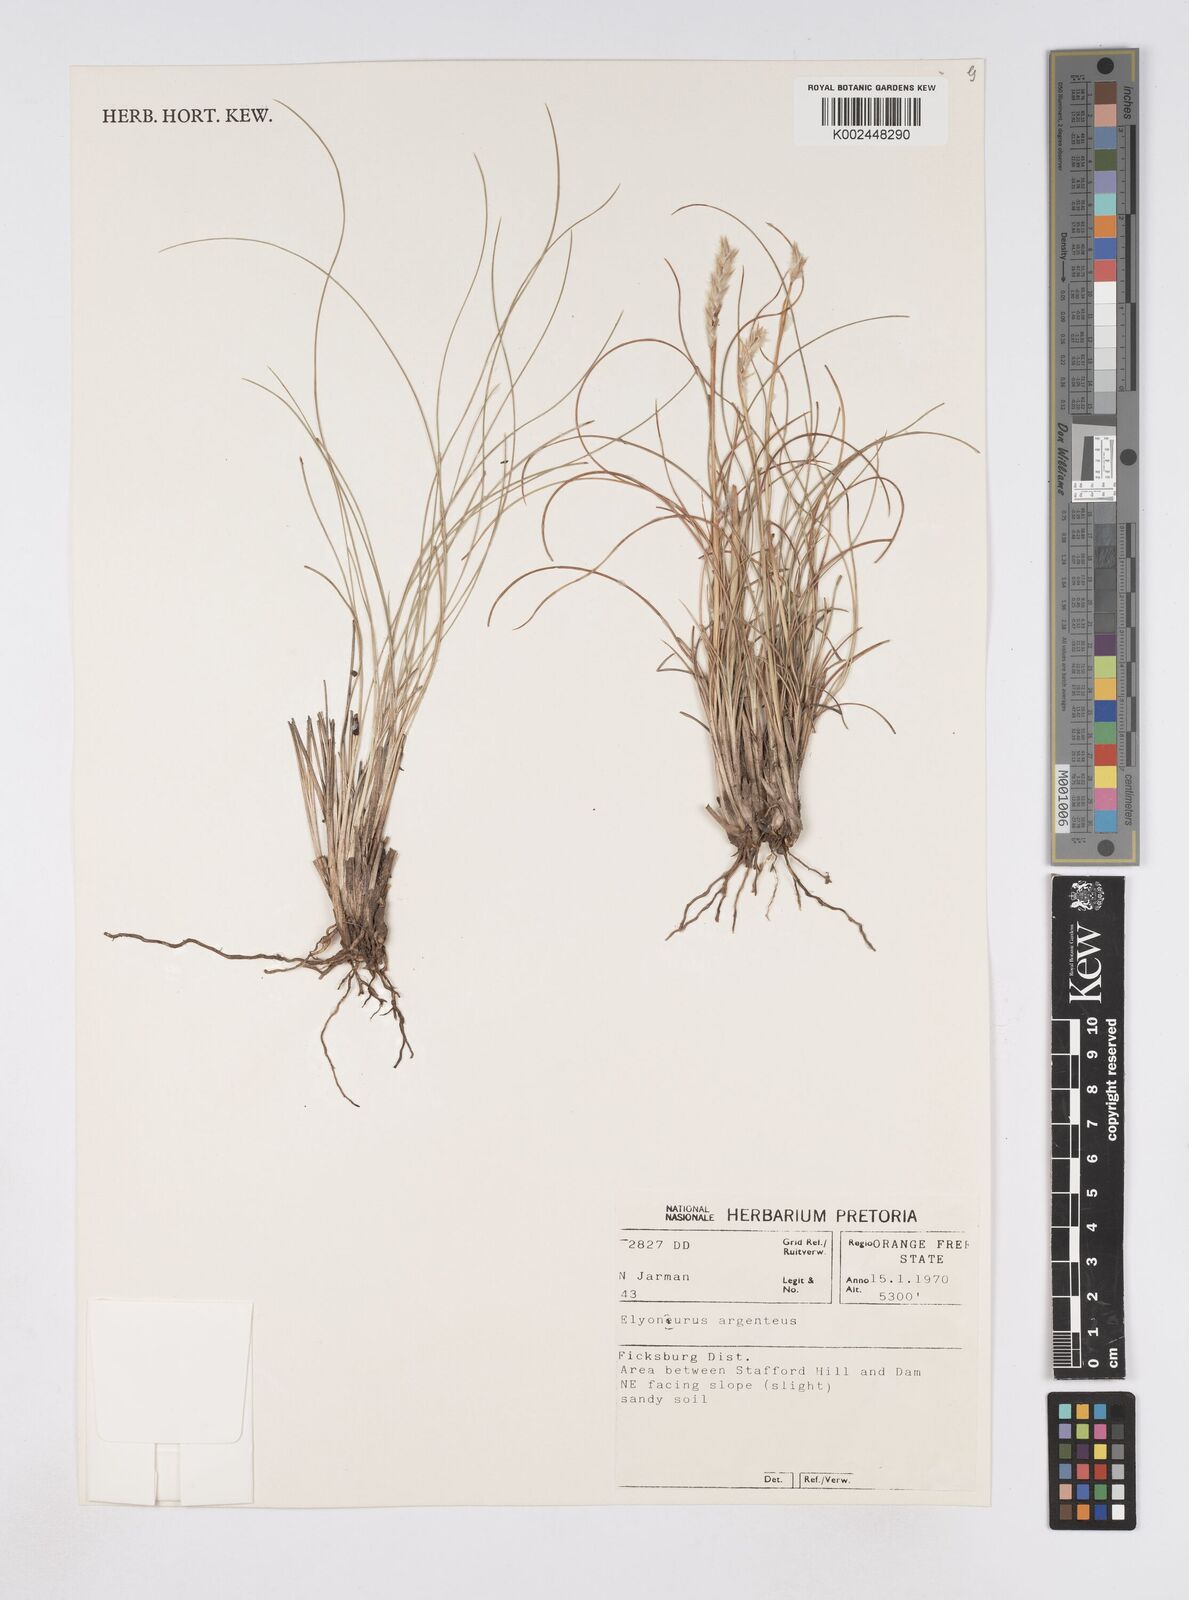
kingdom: Plantae
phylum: Tracheophyta
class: Liliopsida
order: Poales
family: Poaceae
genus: Elionurus
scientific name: Elionurus muticus
